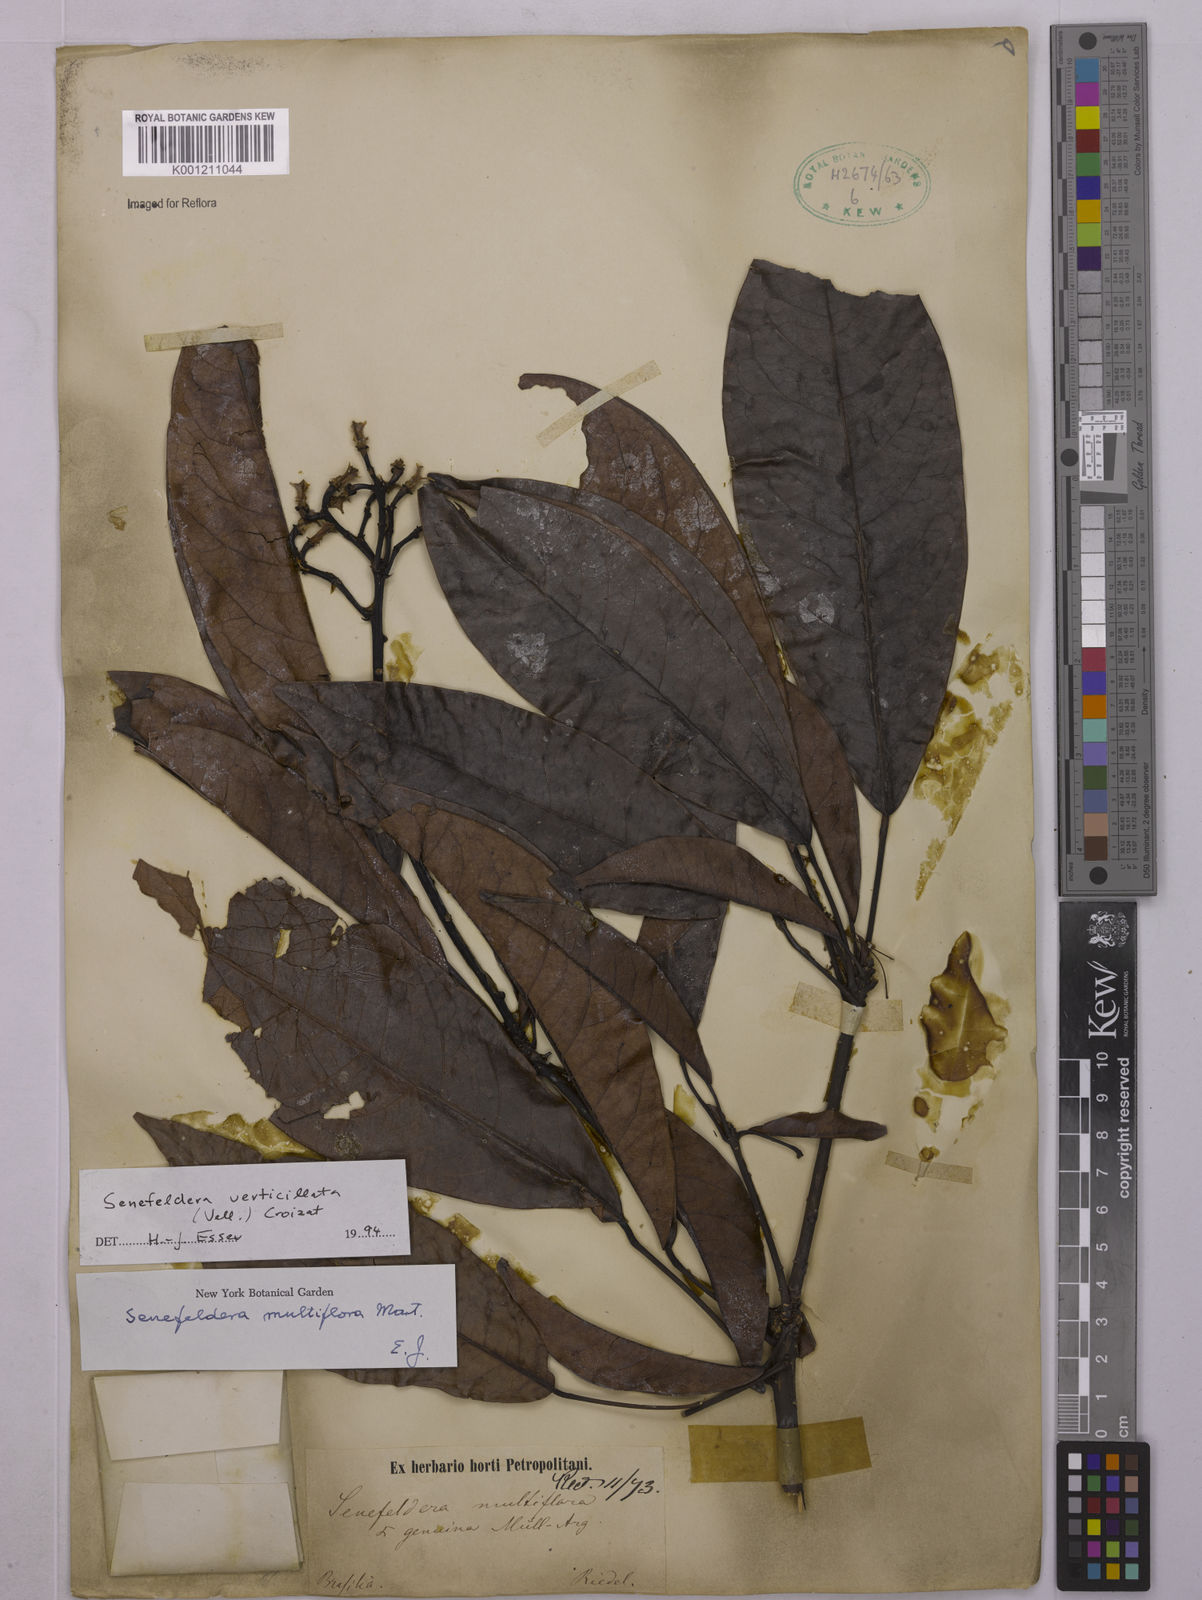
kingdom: Plantae
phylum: Tracheophyta
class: Magnoliopsida
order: Malpighiales
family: Euphorbiaceae
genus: Senefeldera
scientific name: Senefeldera verticillata
